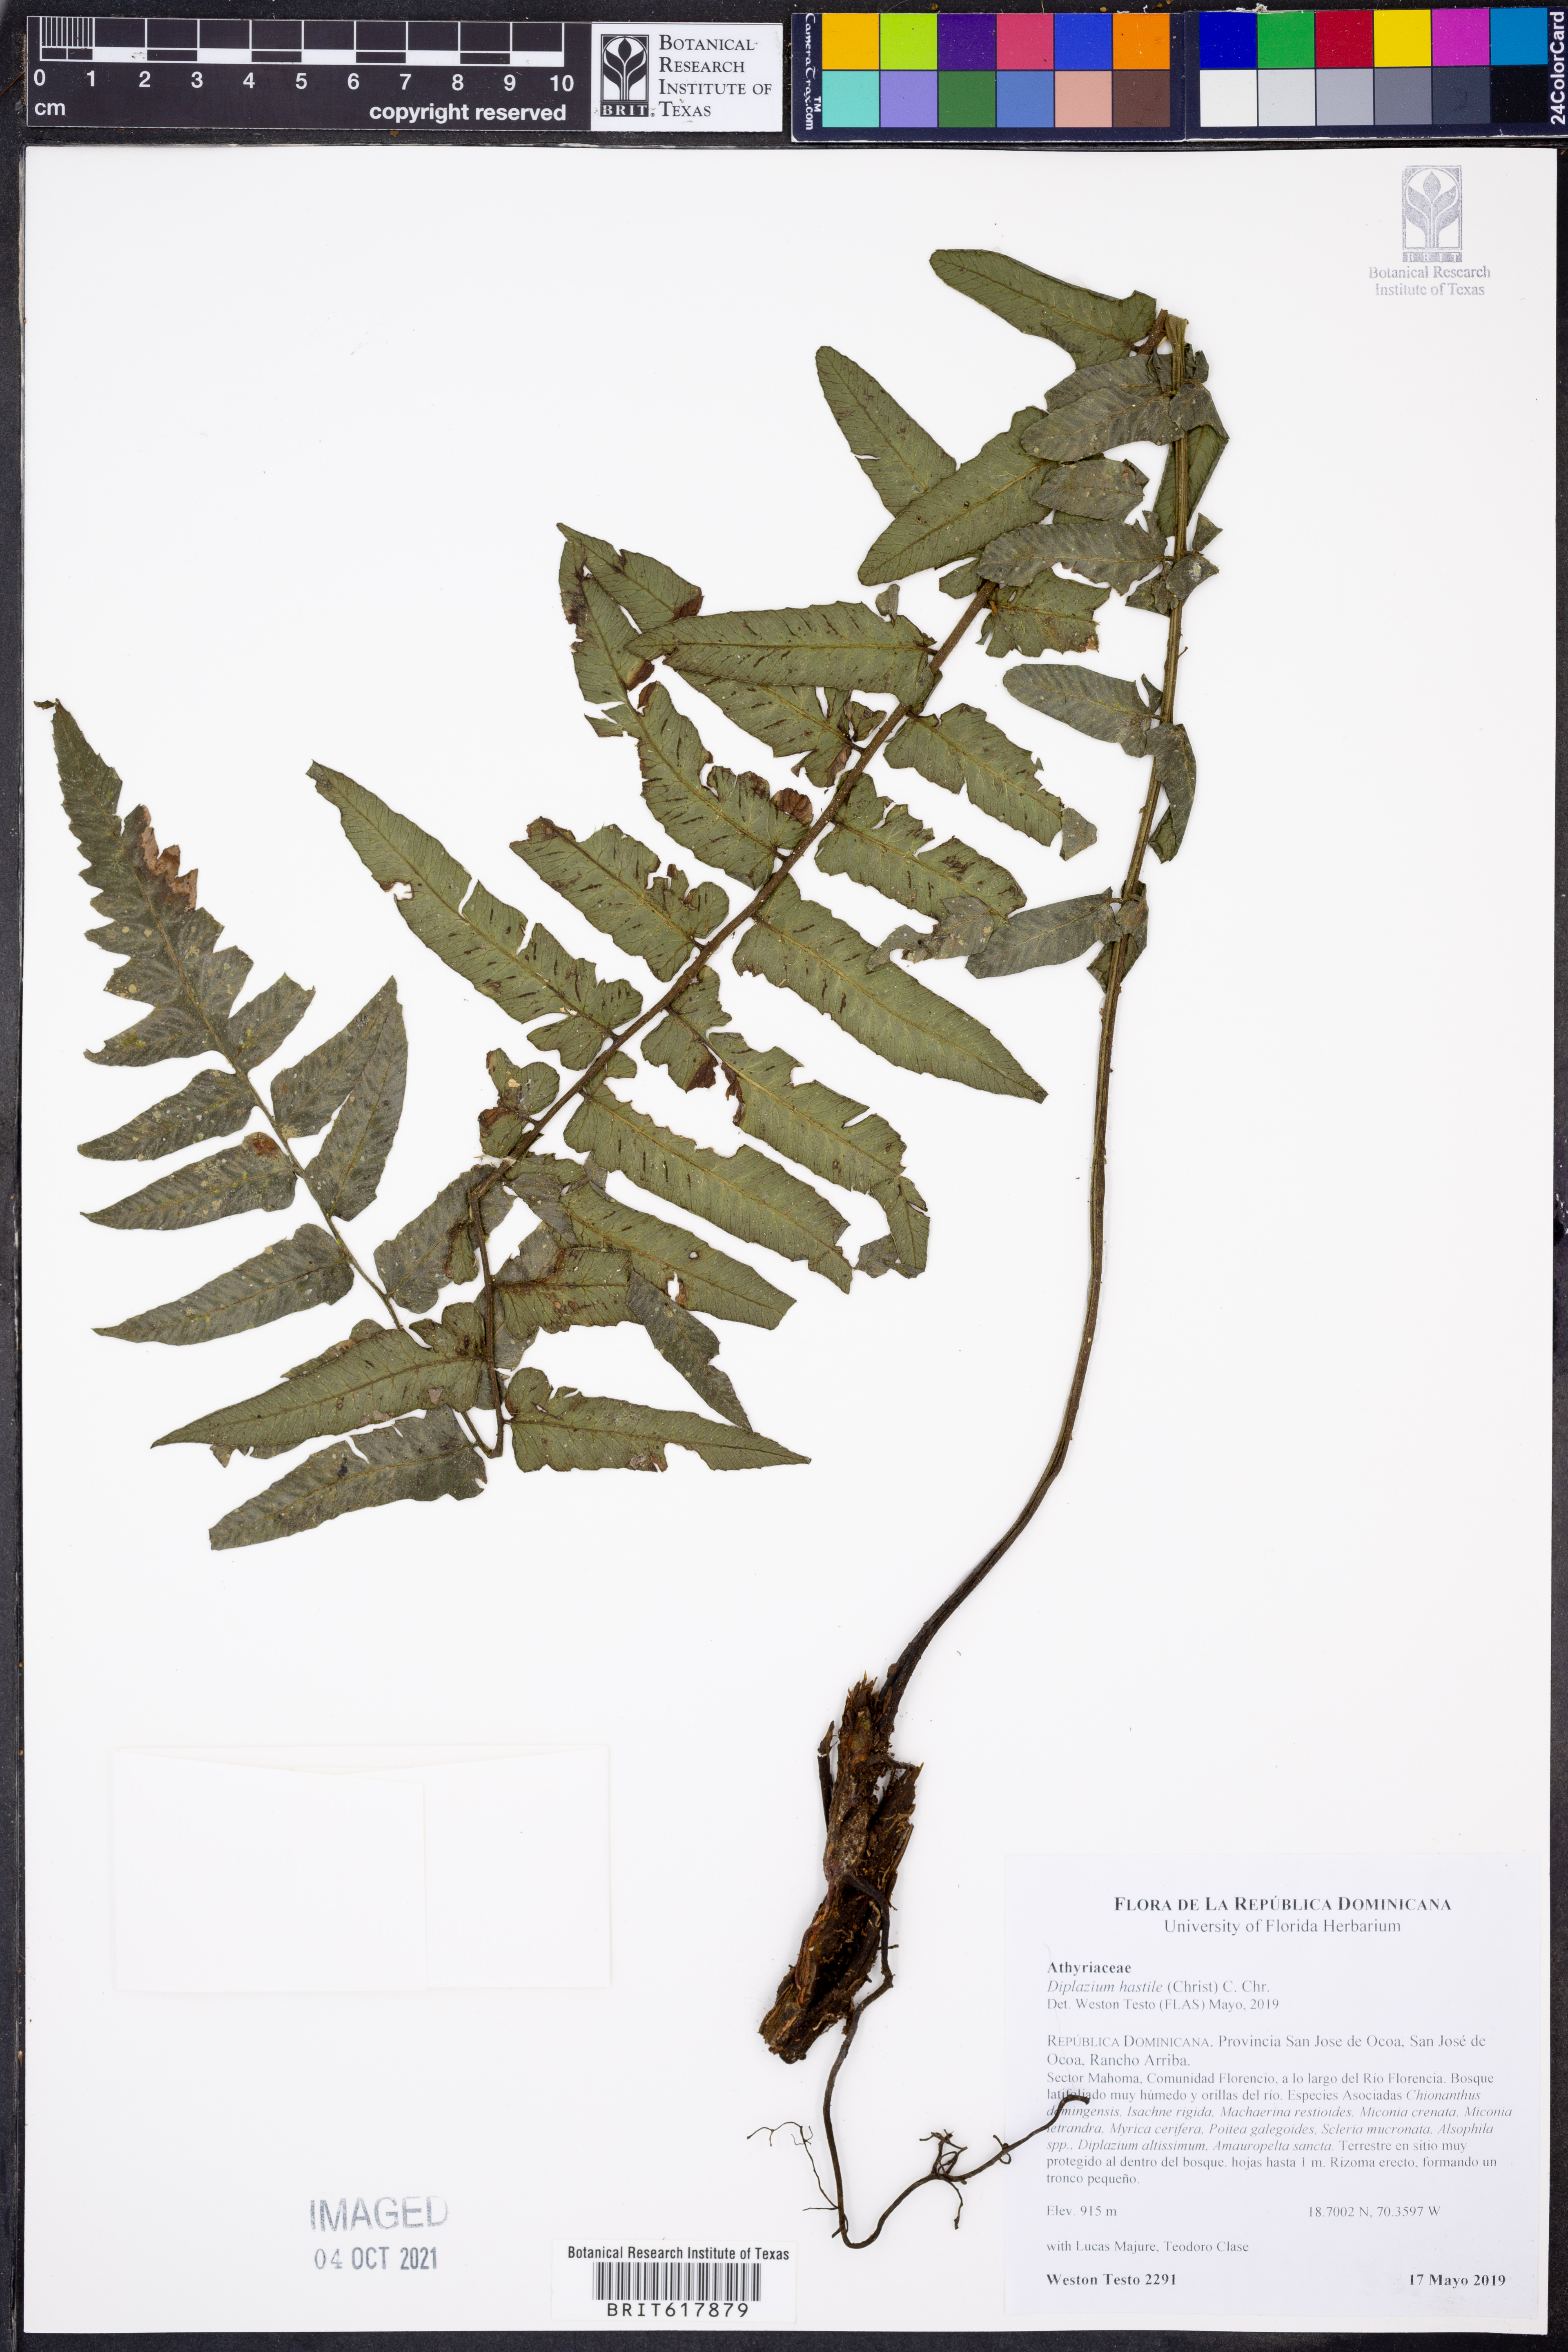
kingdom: Plantae
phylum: Tracheophyta
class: Polypodiopsida
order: Polypodiales
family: Athyriaceae
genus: Diplazium
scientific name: Diplazium urbani
